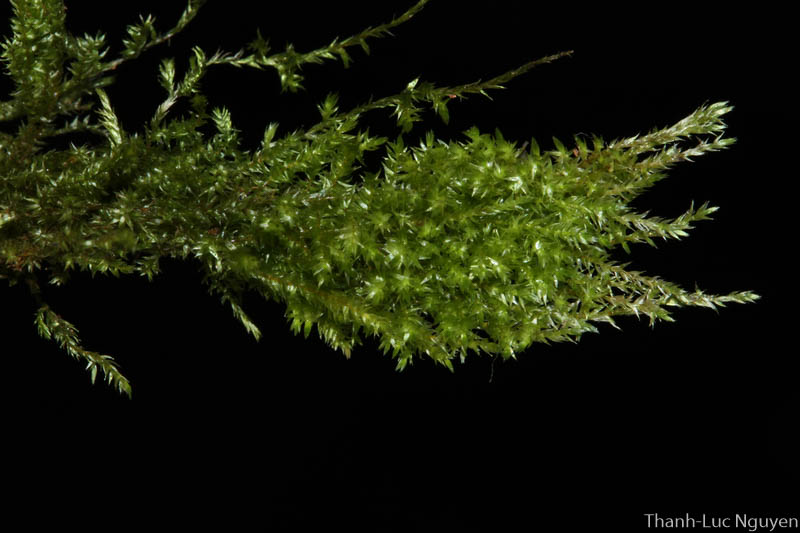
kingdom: Plantae
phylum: Bryophyta
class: Bryopsida
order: Hypnales
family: Sematophyllaceae
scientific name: Sematophyllaceae
